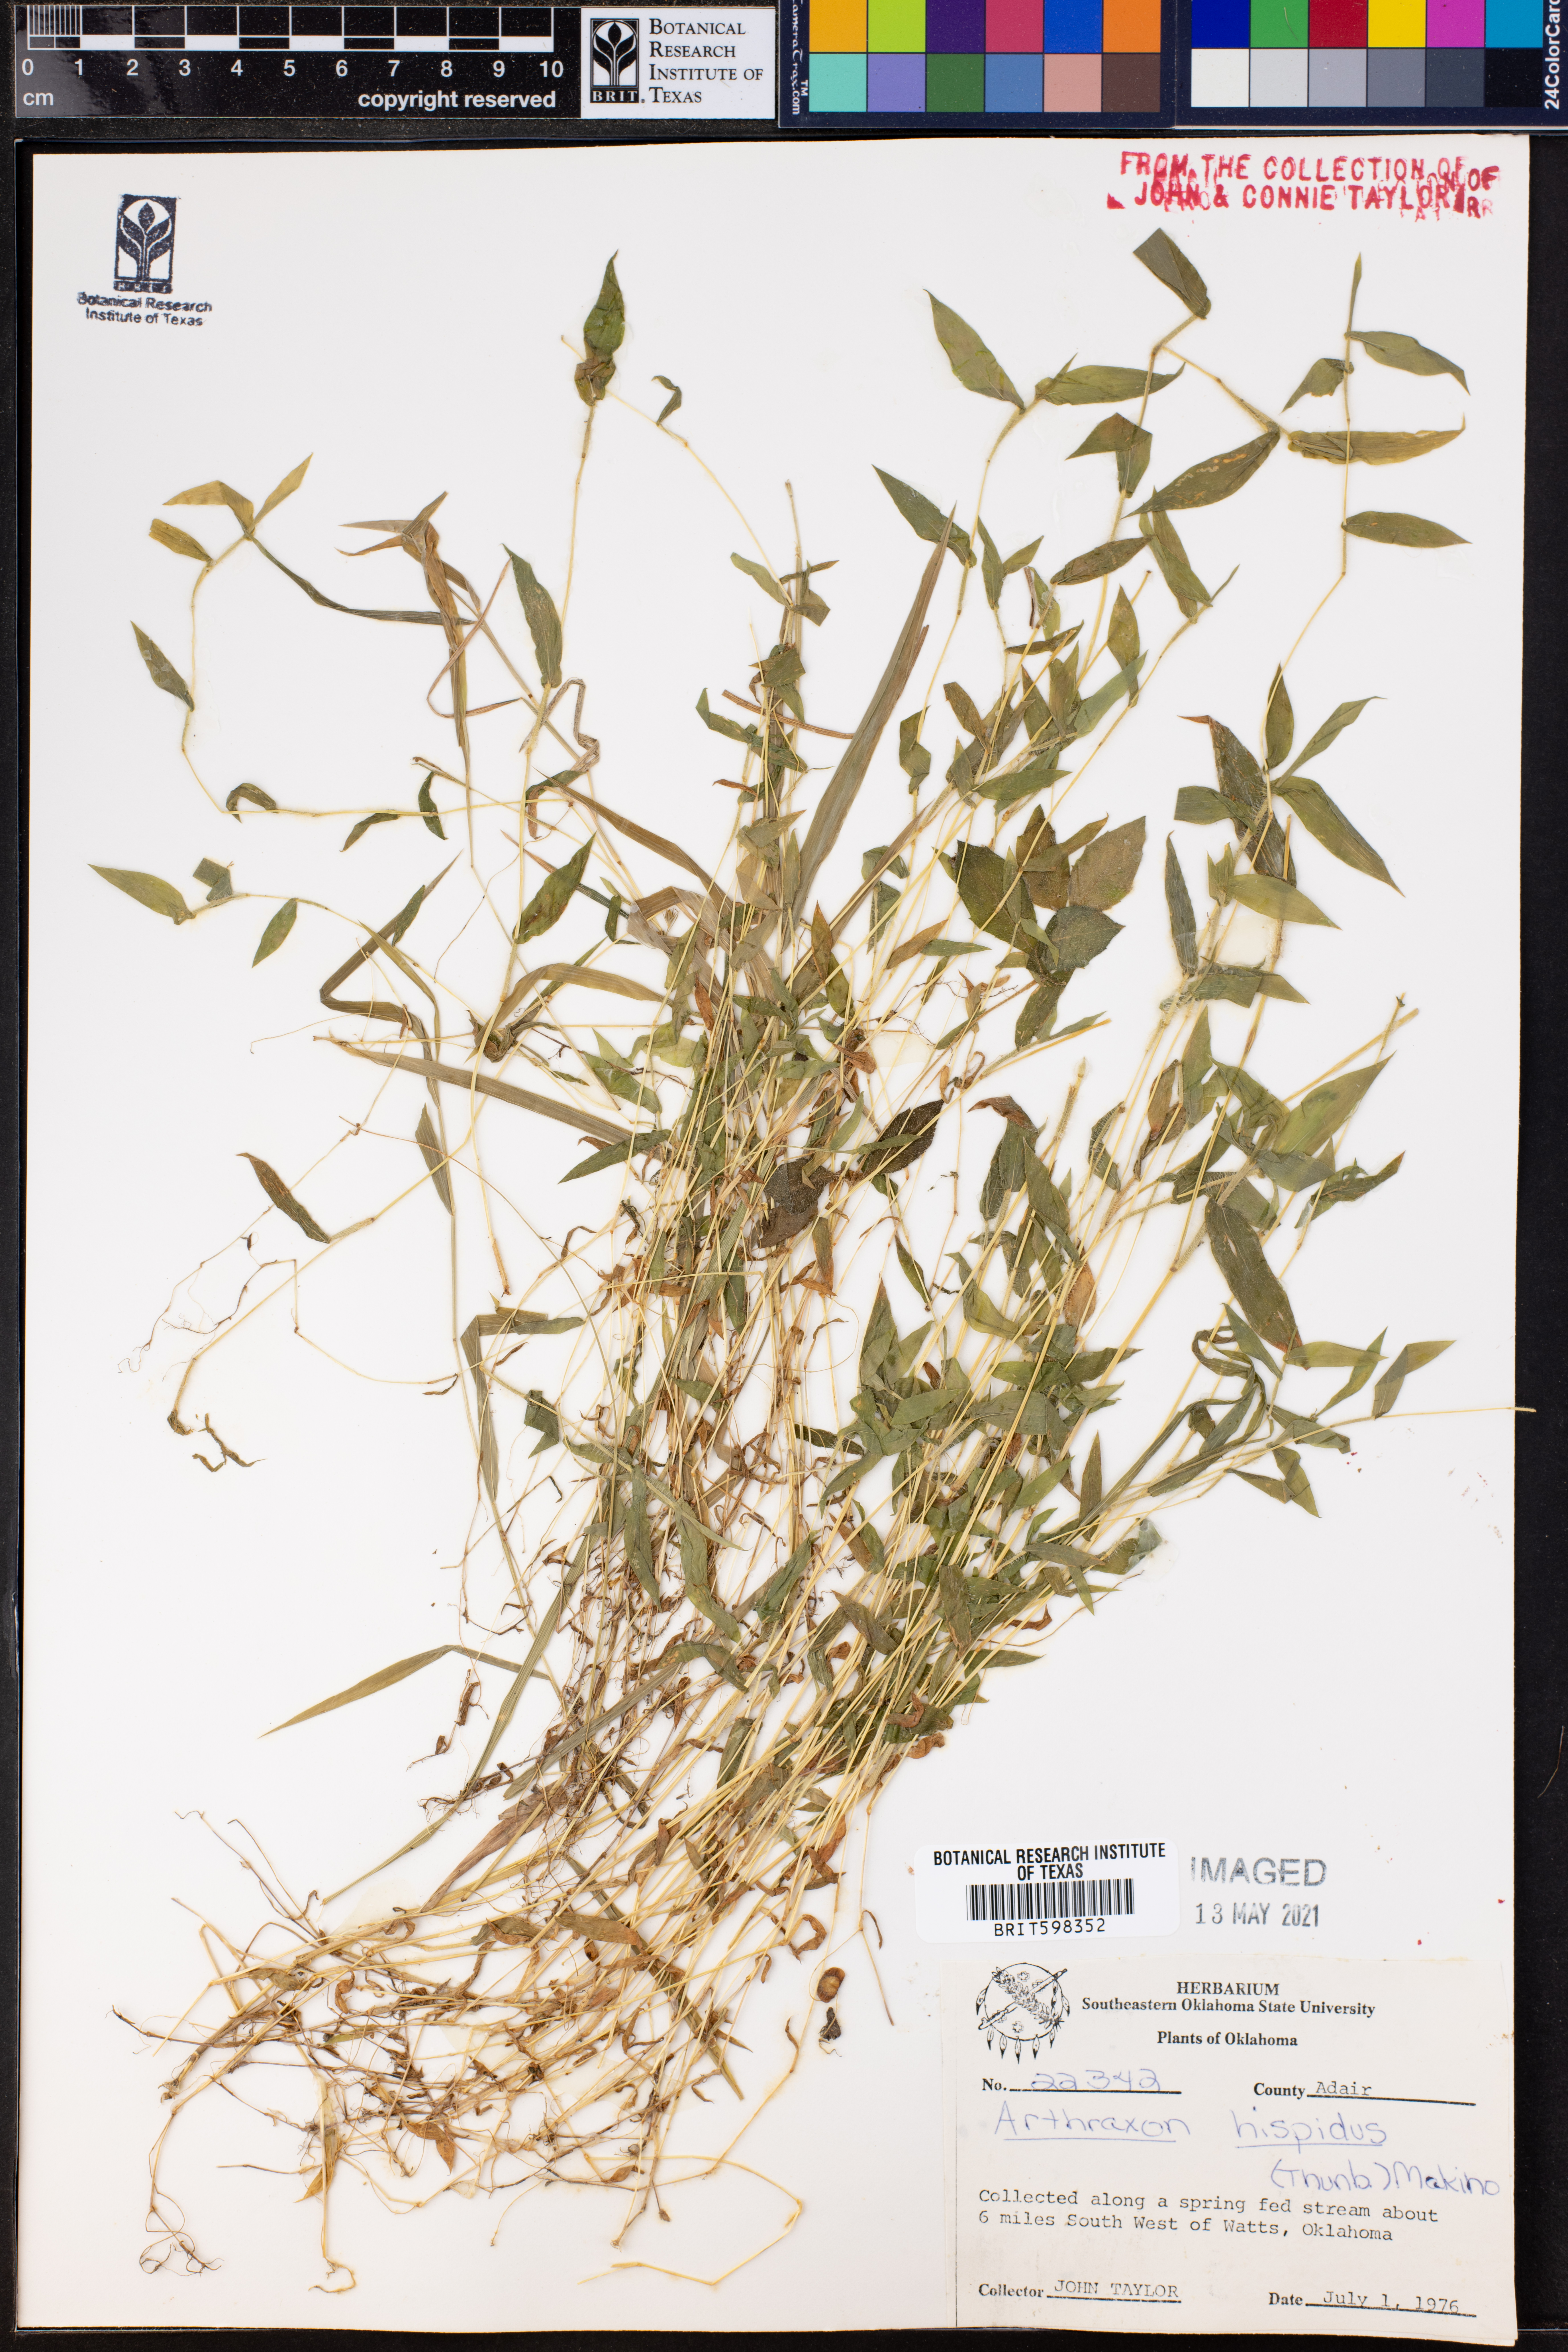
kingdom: Plantae
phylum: Tracheophyta
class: Liliopsida
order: Poales
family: Poaceae
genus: Arthraxon
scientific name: Arthraxon hispidus
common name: Small carpgrass
